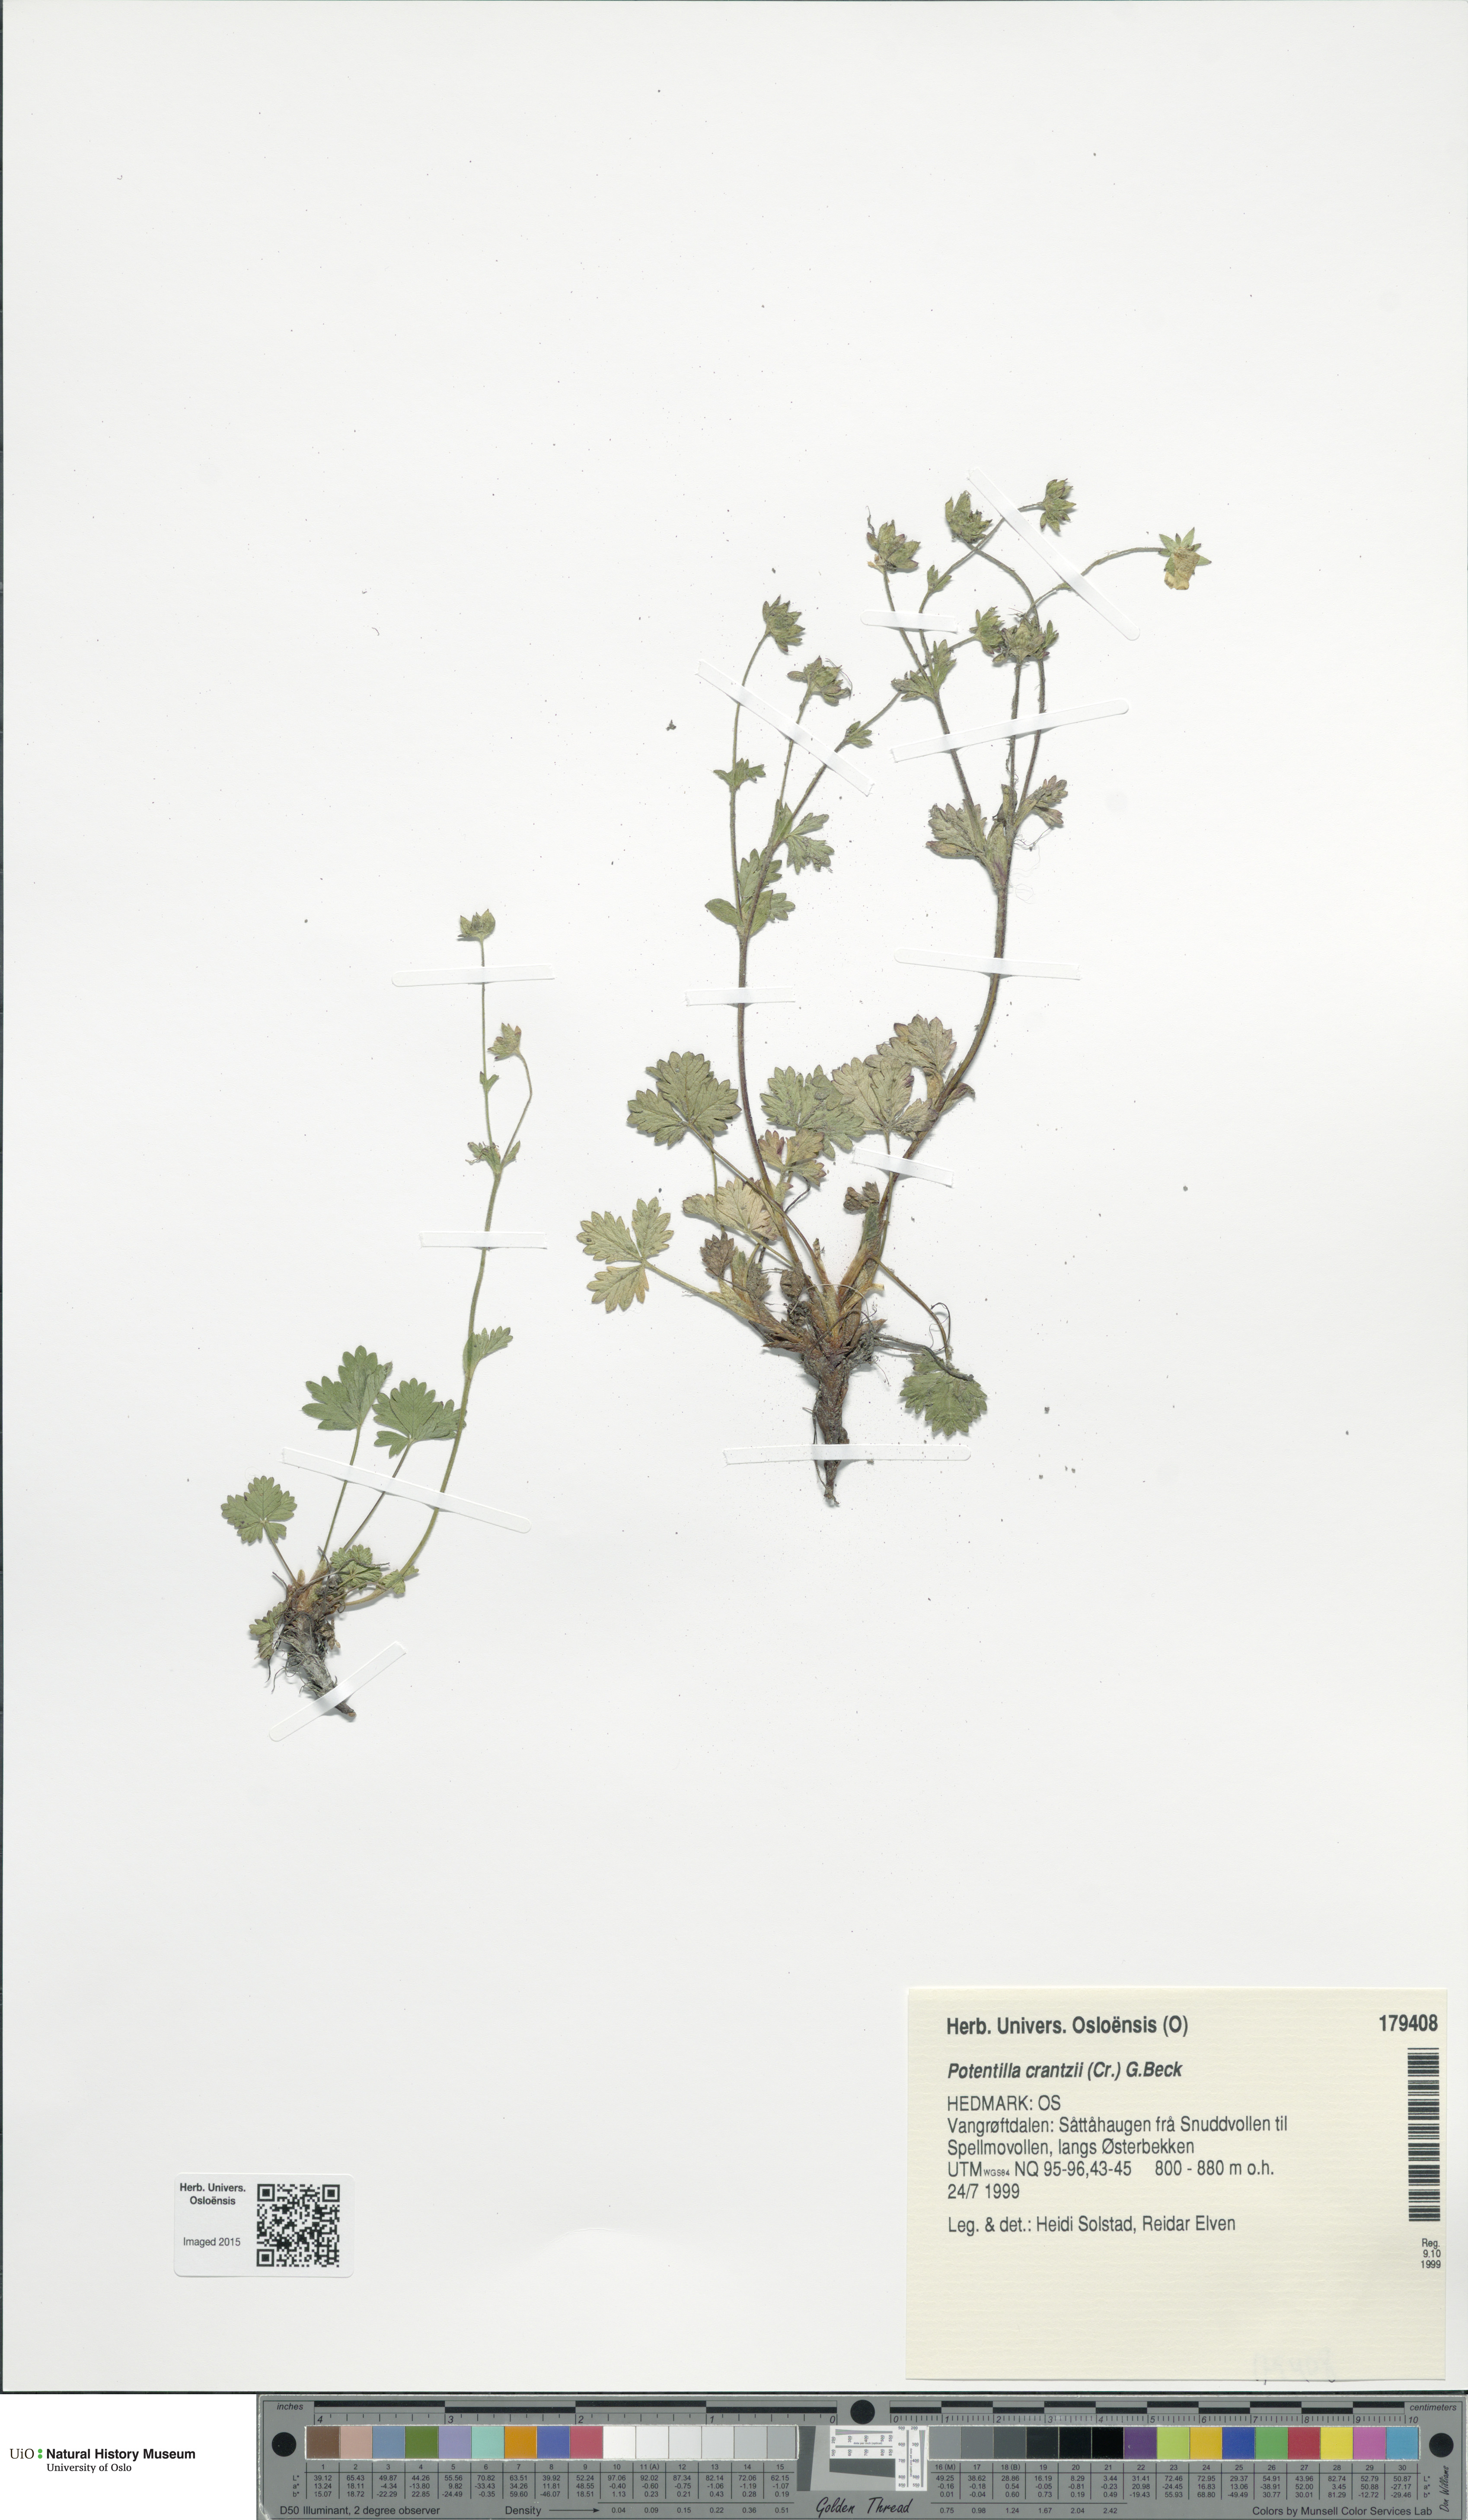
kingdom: Plantae
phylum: Tracheophyta
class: Magnoliopsida
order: Rosales
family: Rosaceae
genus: Potentilla
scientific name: Potentilla crantzii
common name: Alpine cinquefoil
